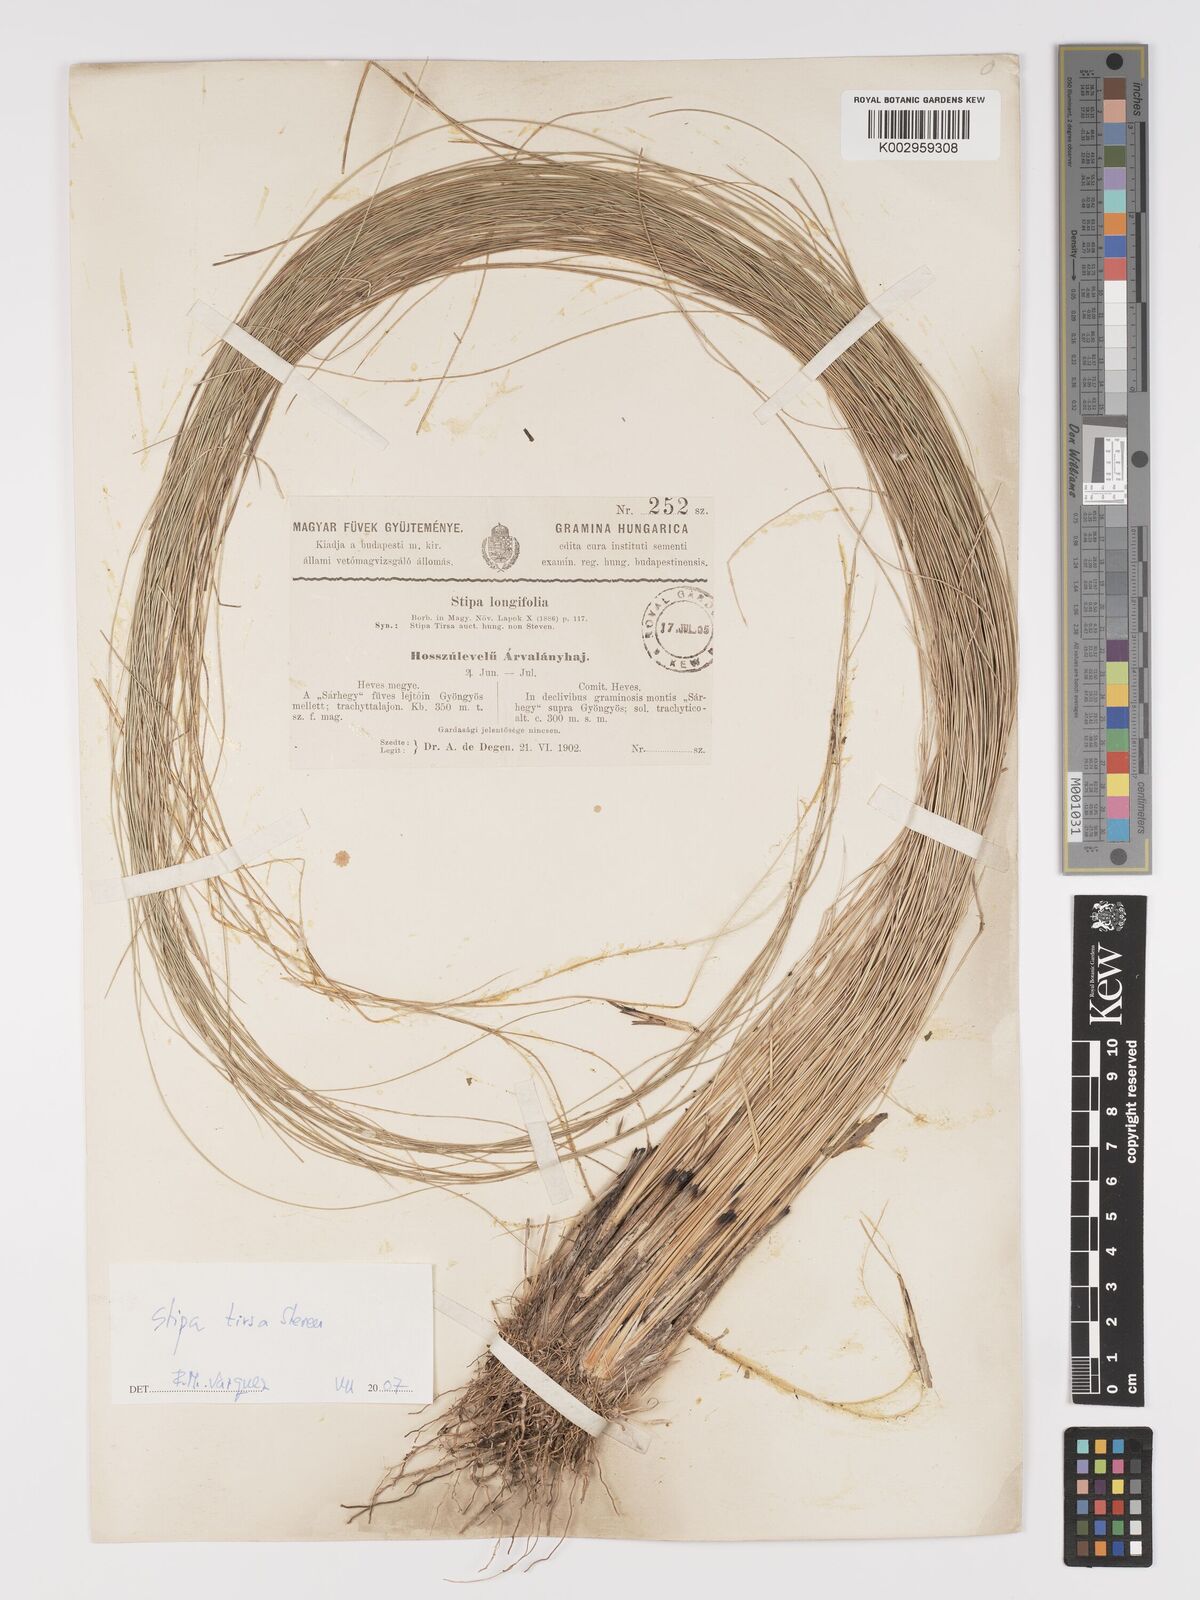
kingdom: Plantae
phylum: Tracheophyta
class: Liliopsida
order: Poales
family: Poaceae
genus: Stipa
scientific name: Stipa tirsa
